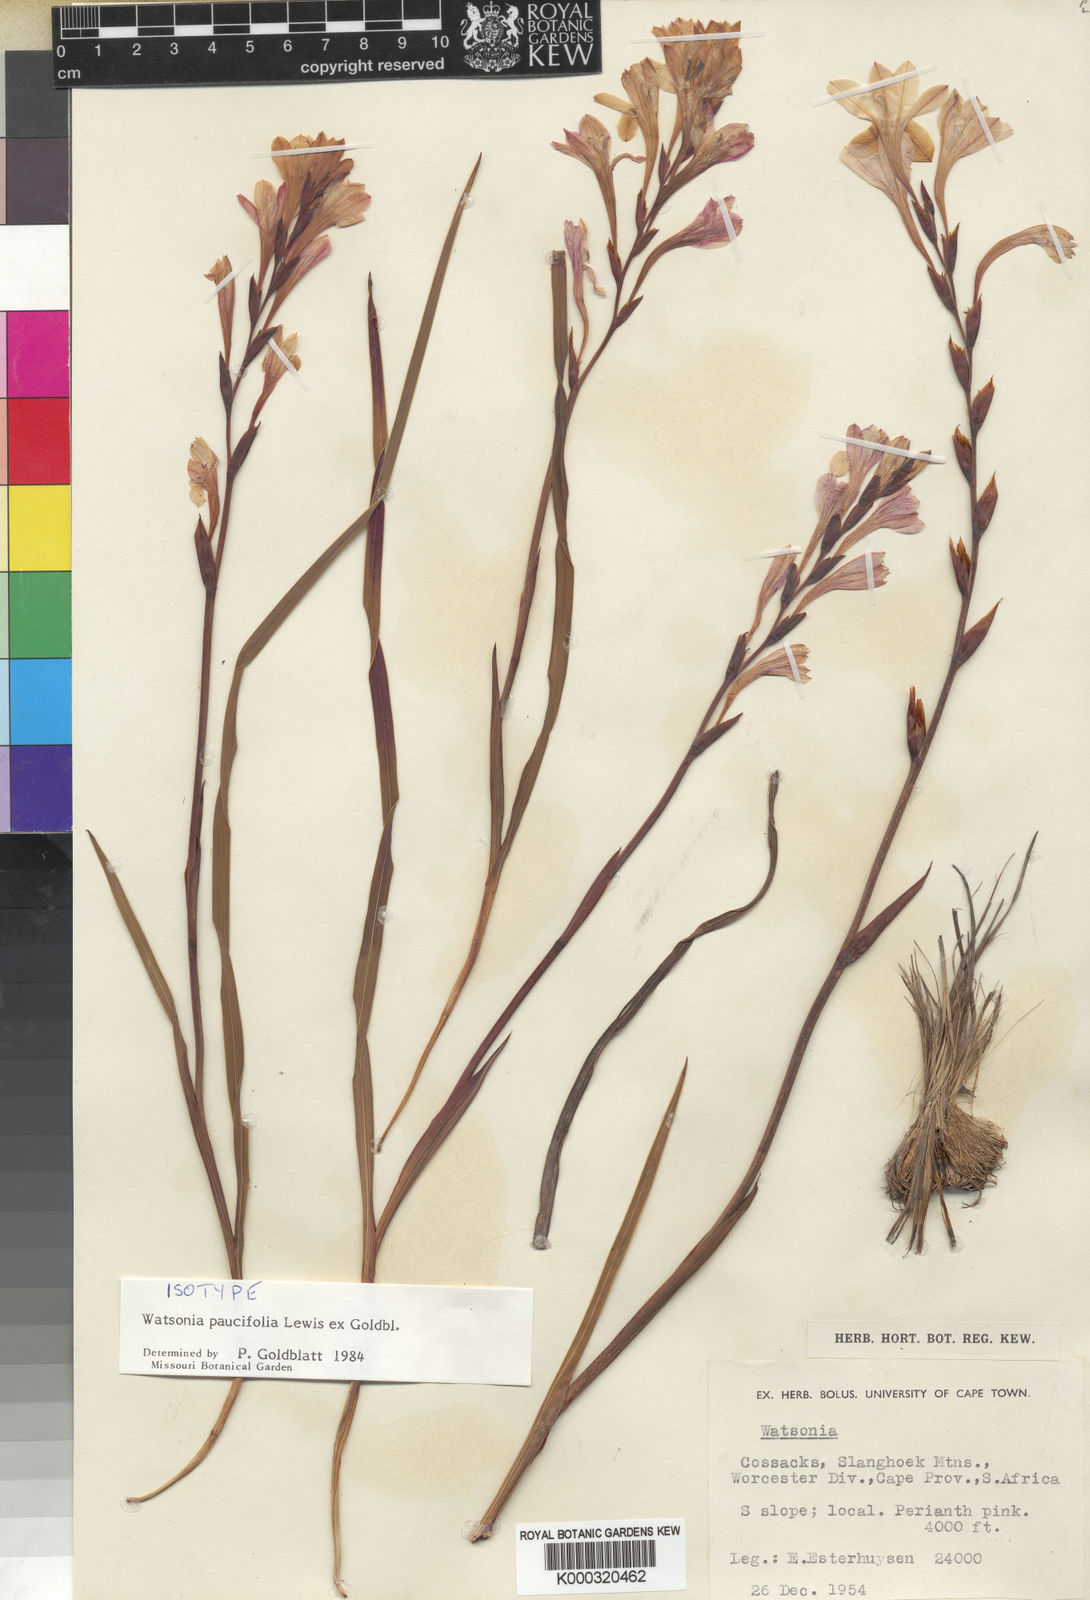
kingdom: Plantae
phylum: Tracheophyta
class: Liliopsida
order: Asparagales
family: Iridaceae
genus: Watsonia
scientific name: Watsonia paucifolia
